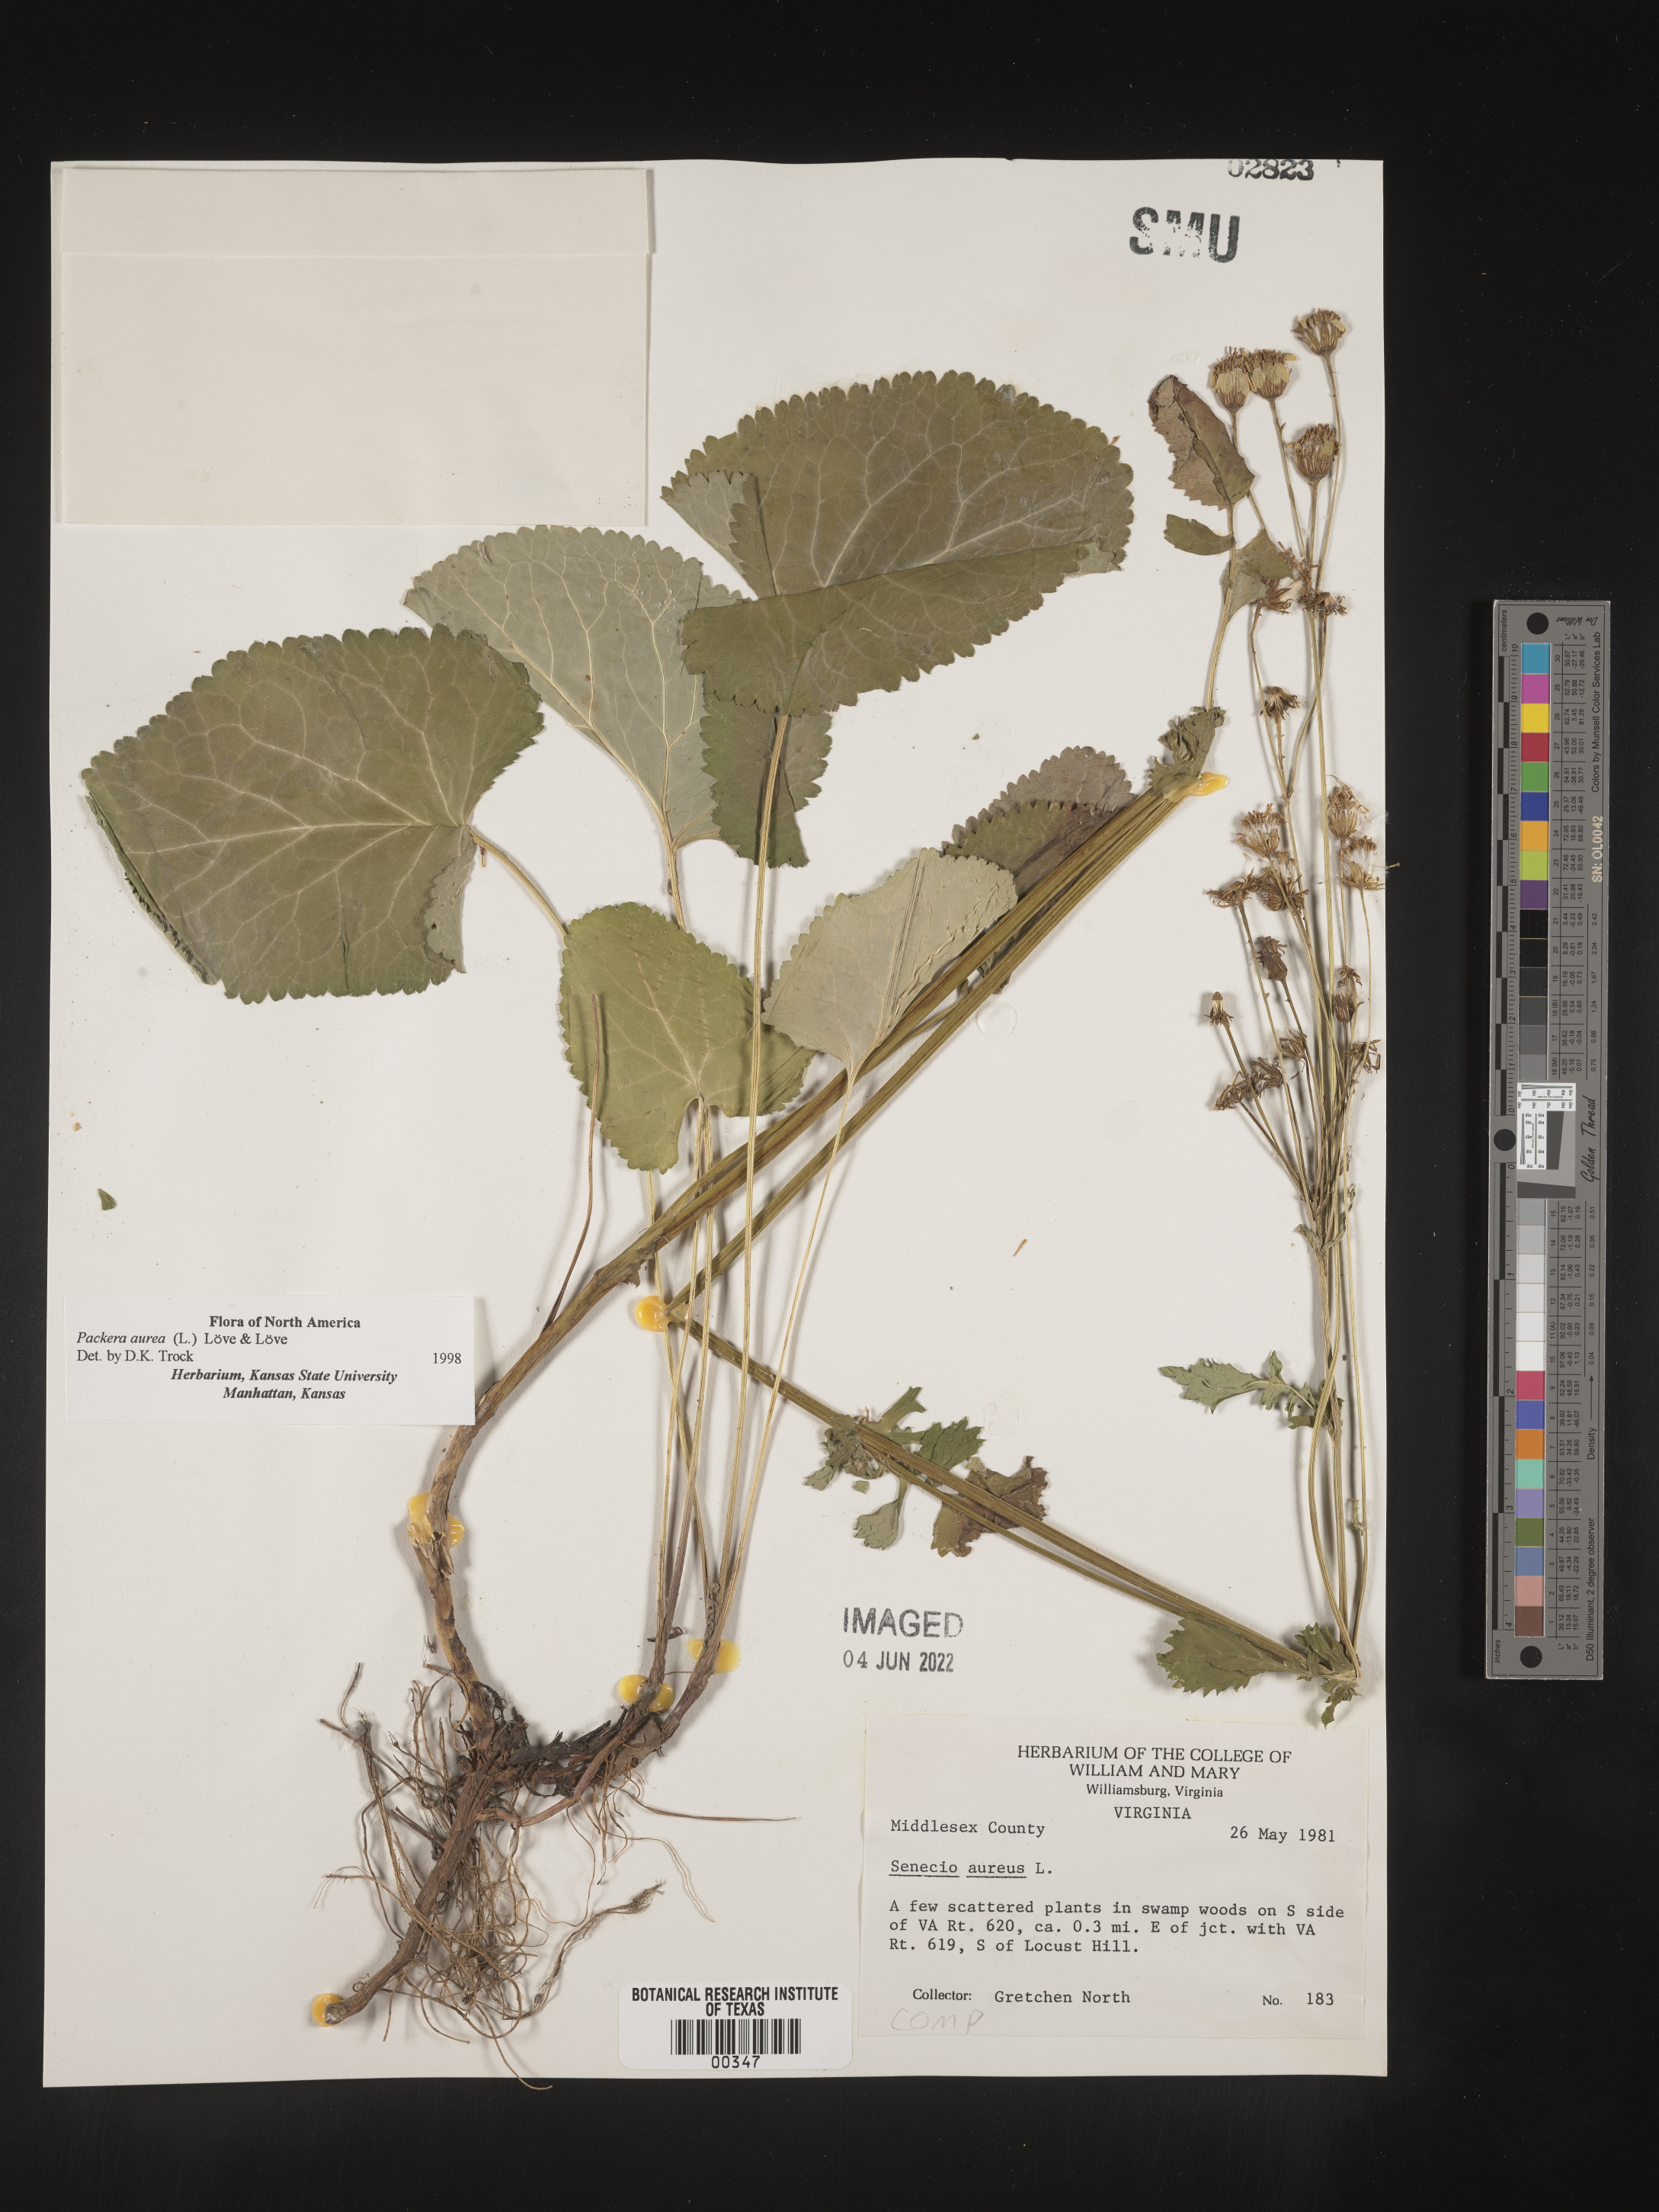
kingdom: Plantae
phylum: Tracheophyta
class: Magnoliopsida
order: Asterales
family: Asteraceae
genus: Packera
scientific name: Packera aurea
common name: Golden groundsel
